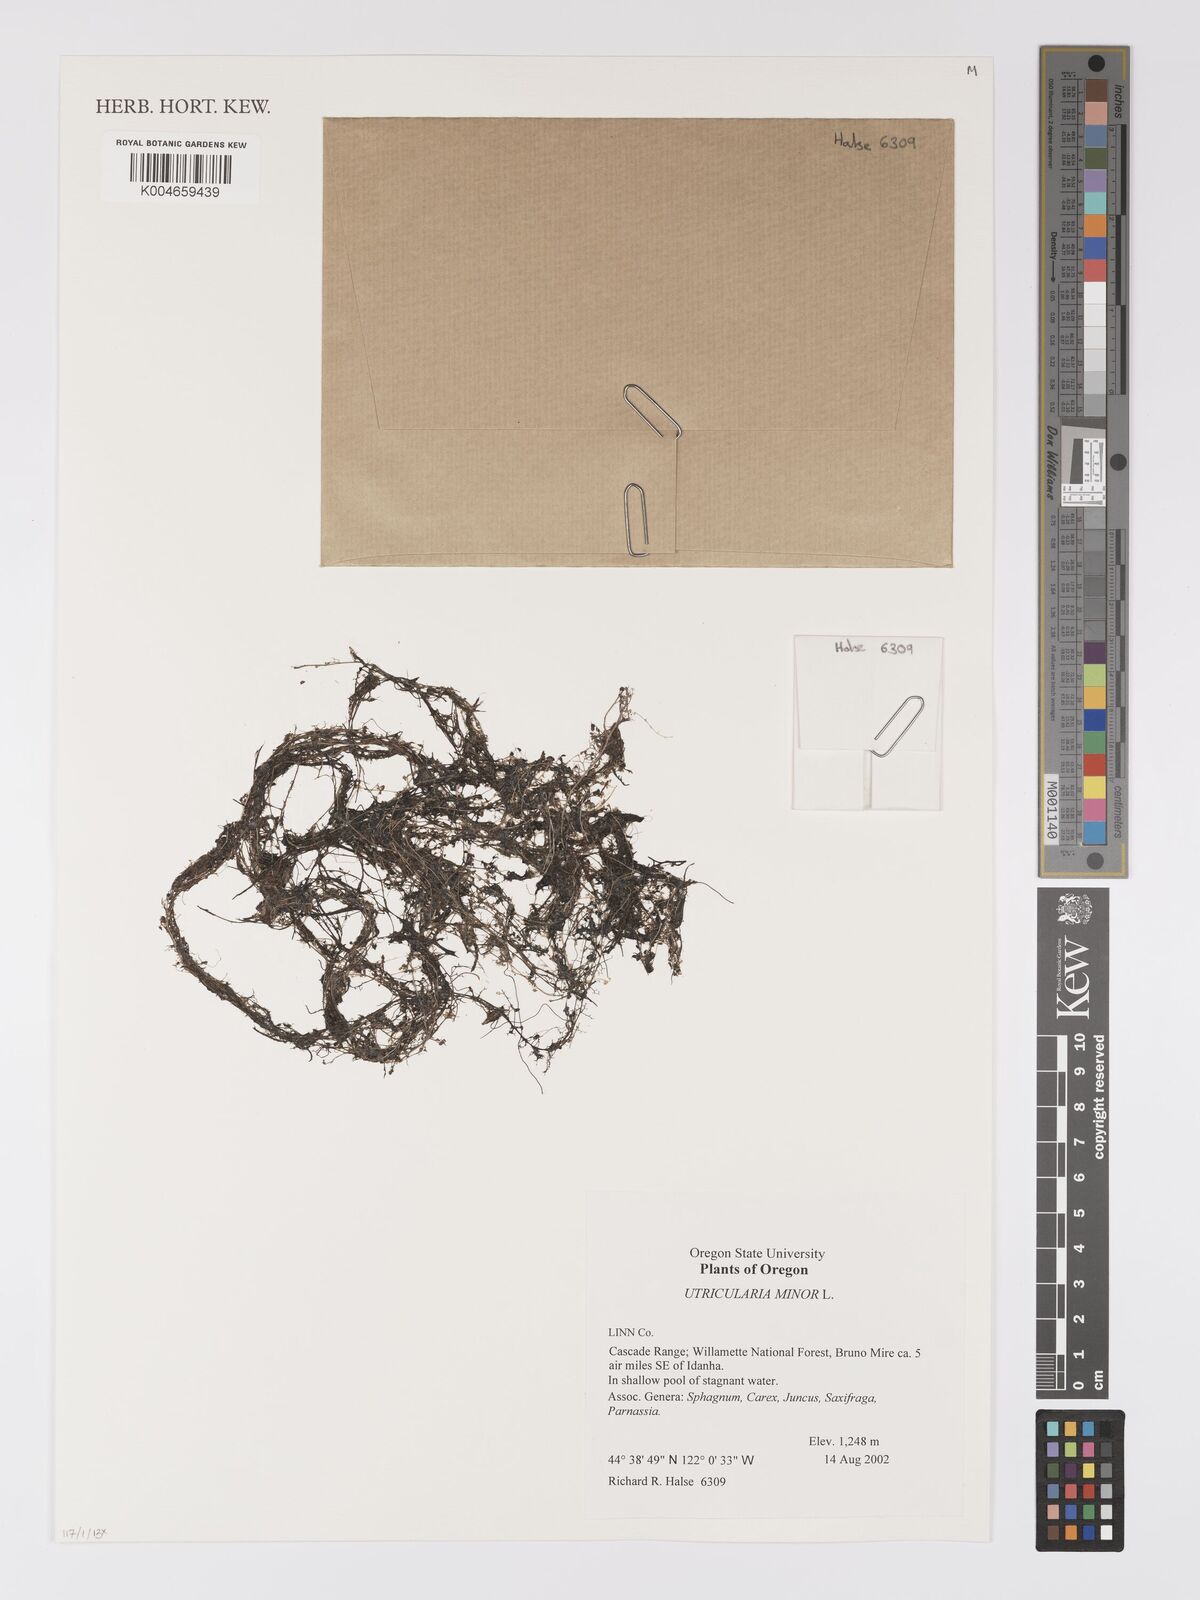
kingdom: Plantae
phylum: Tracheophyta
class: Magnoliopsida
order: Lamiales
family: Lentibulariaceae
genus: Utricularia
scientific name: Utricularia minor
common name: Lesser bladderwort
